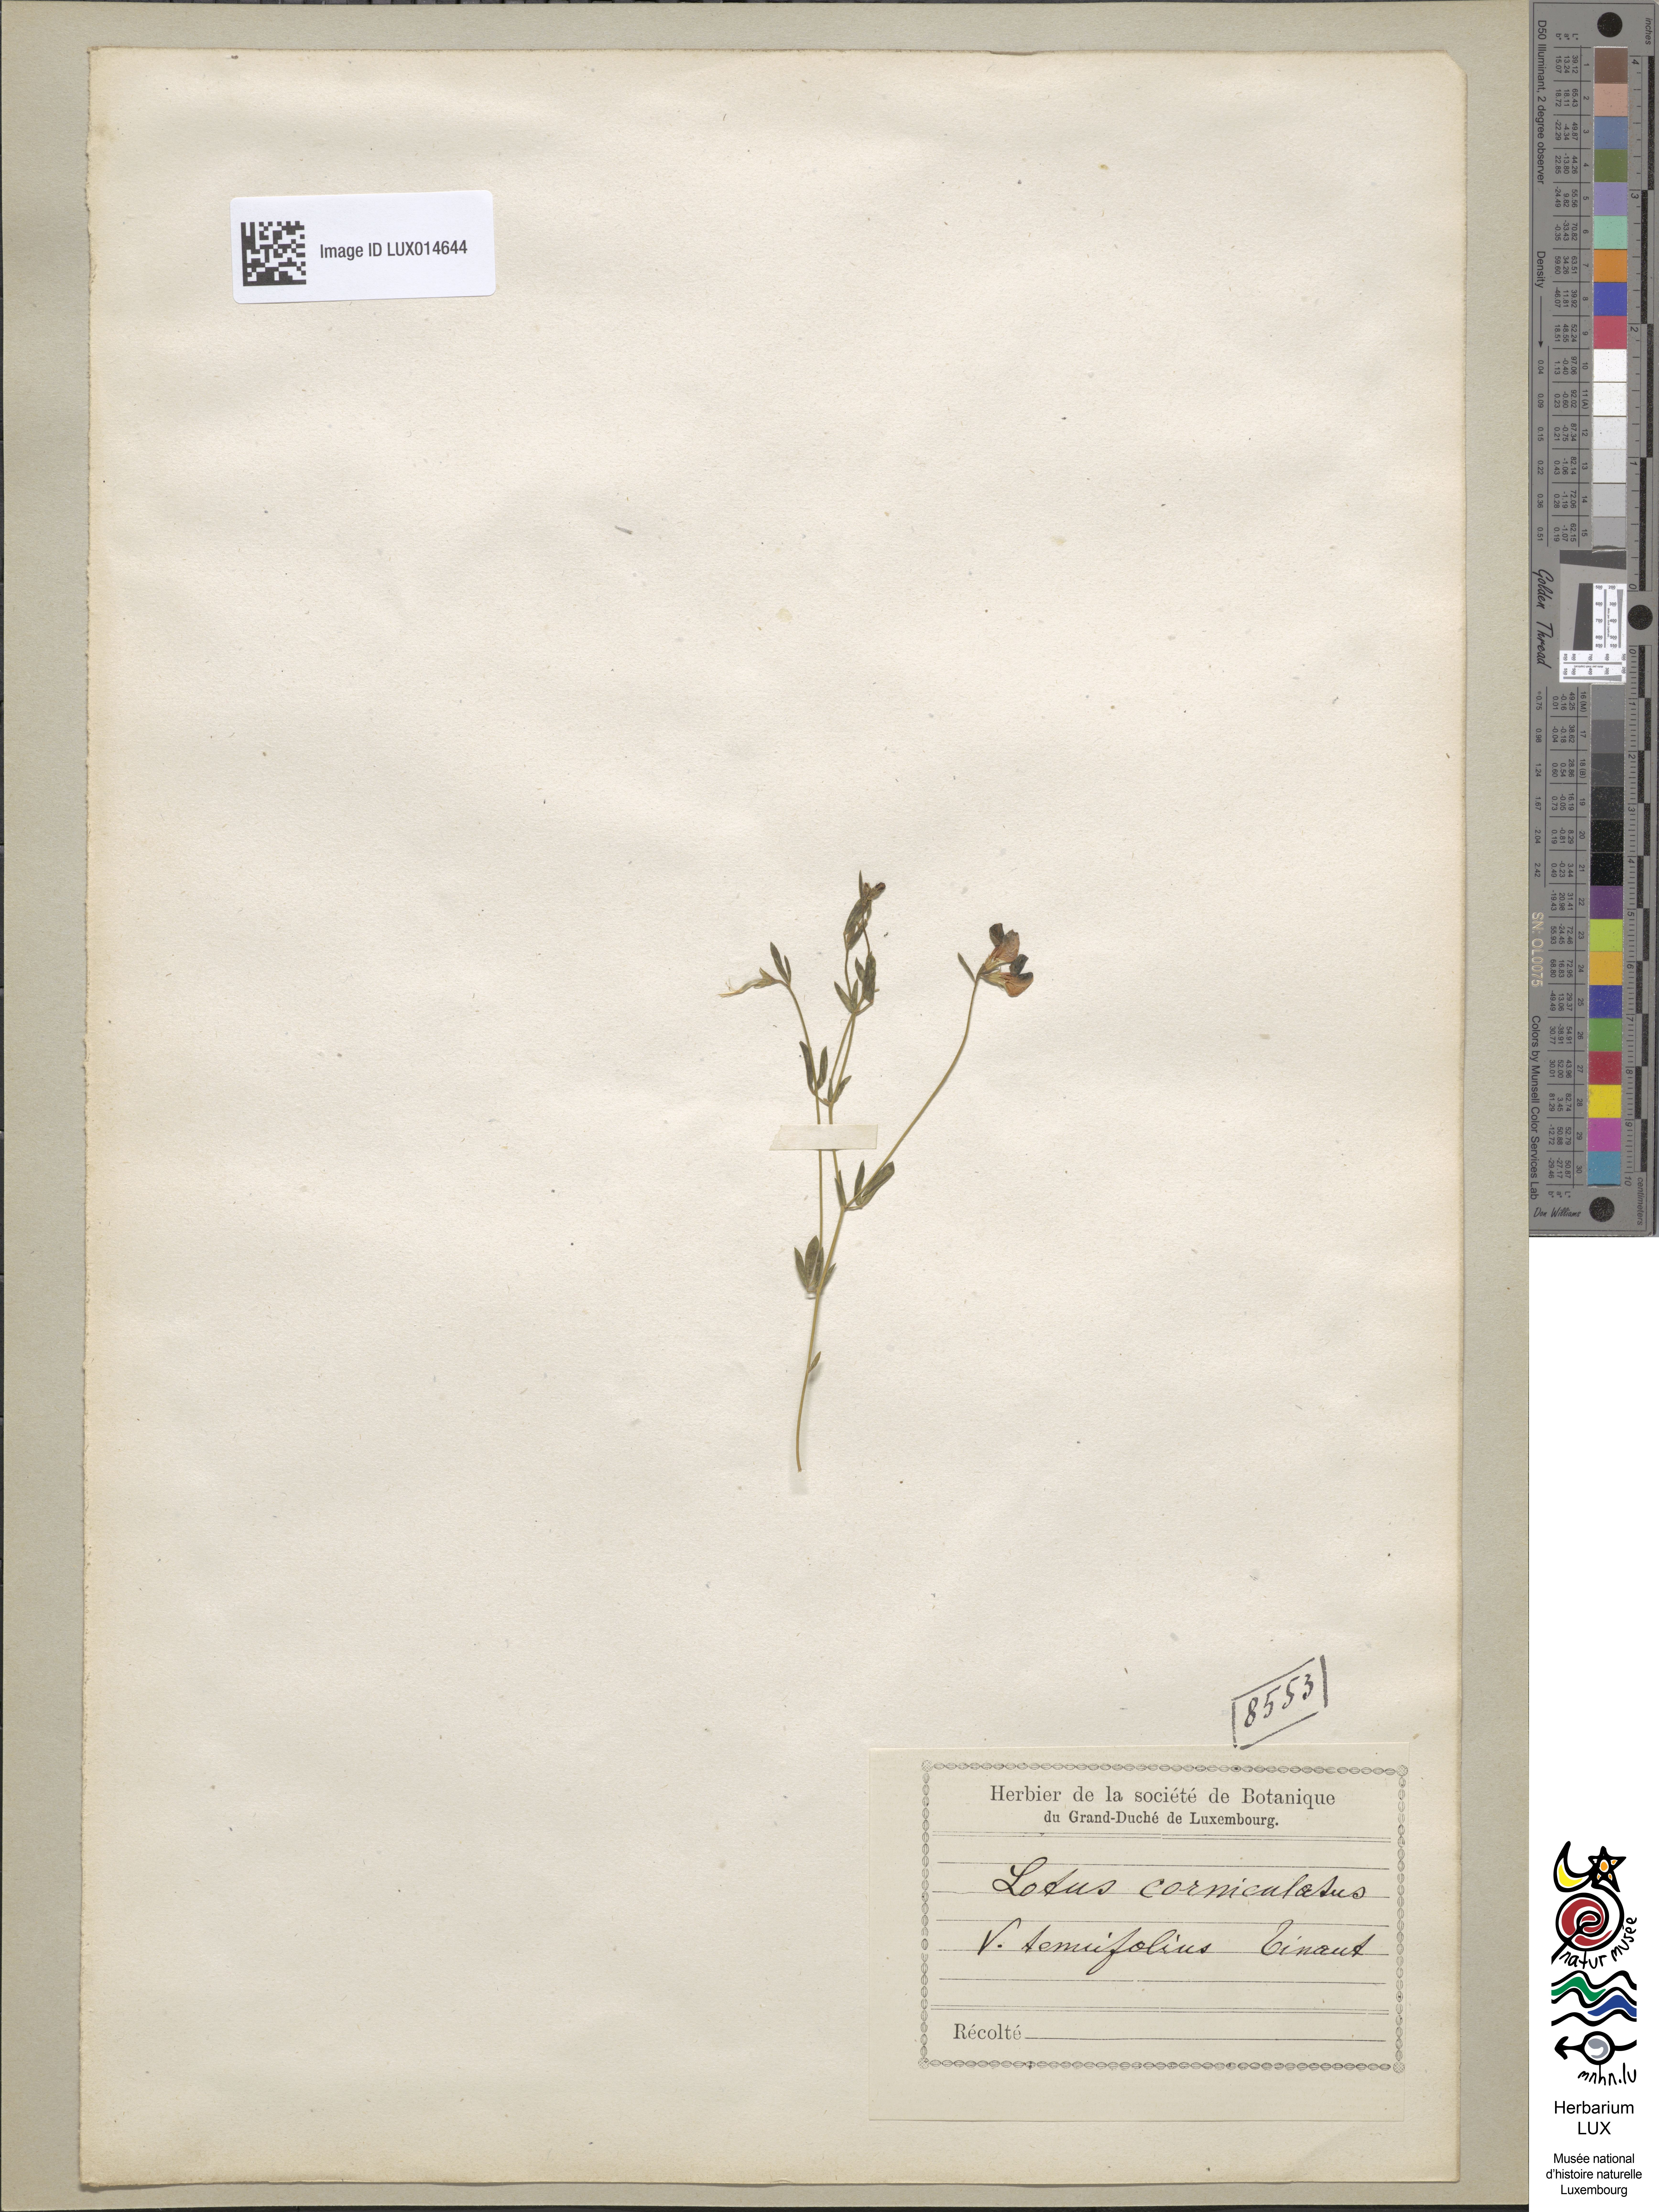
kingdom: Plantae
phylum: Tracheophyta
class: Magnoliopsida
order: Fabales
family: Fabaceae
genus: Lotus
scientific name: Lotus tenuis
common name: Narrow-leaved bird's-foot-trefoil
